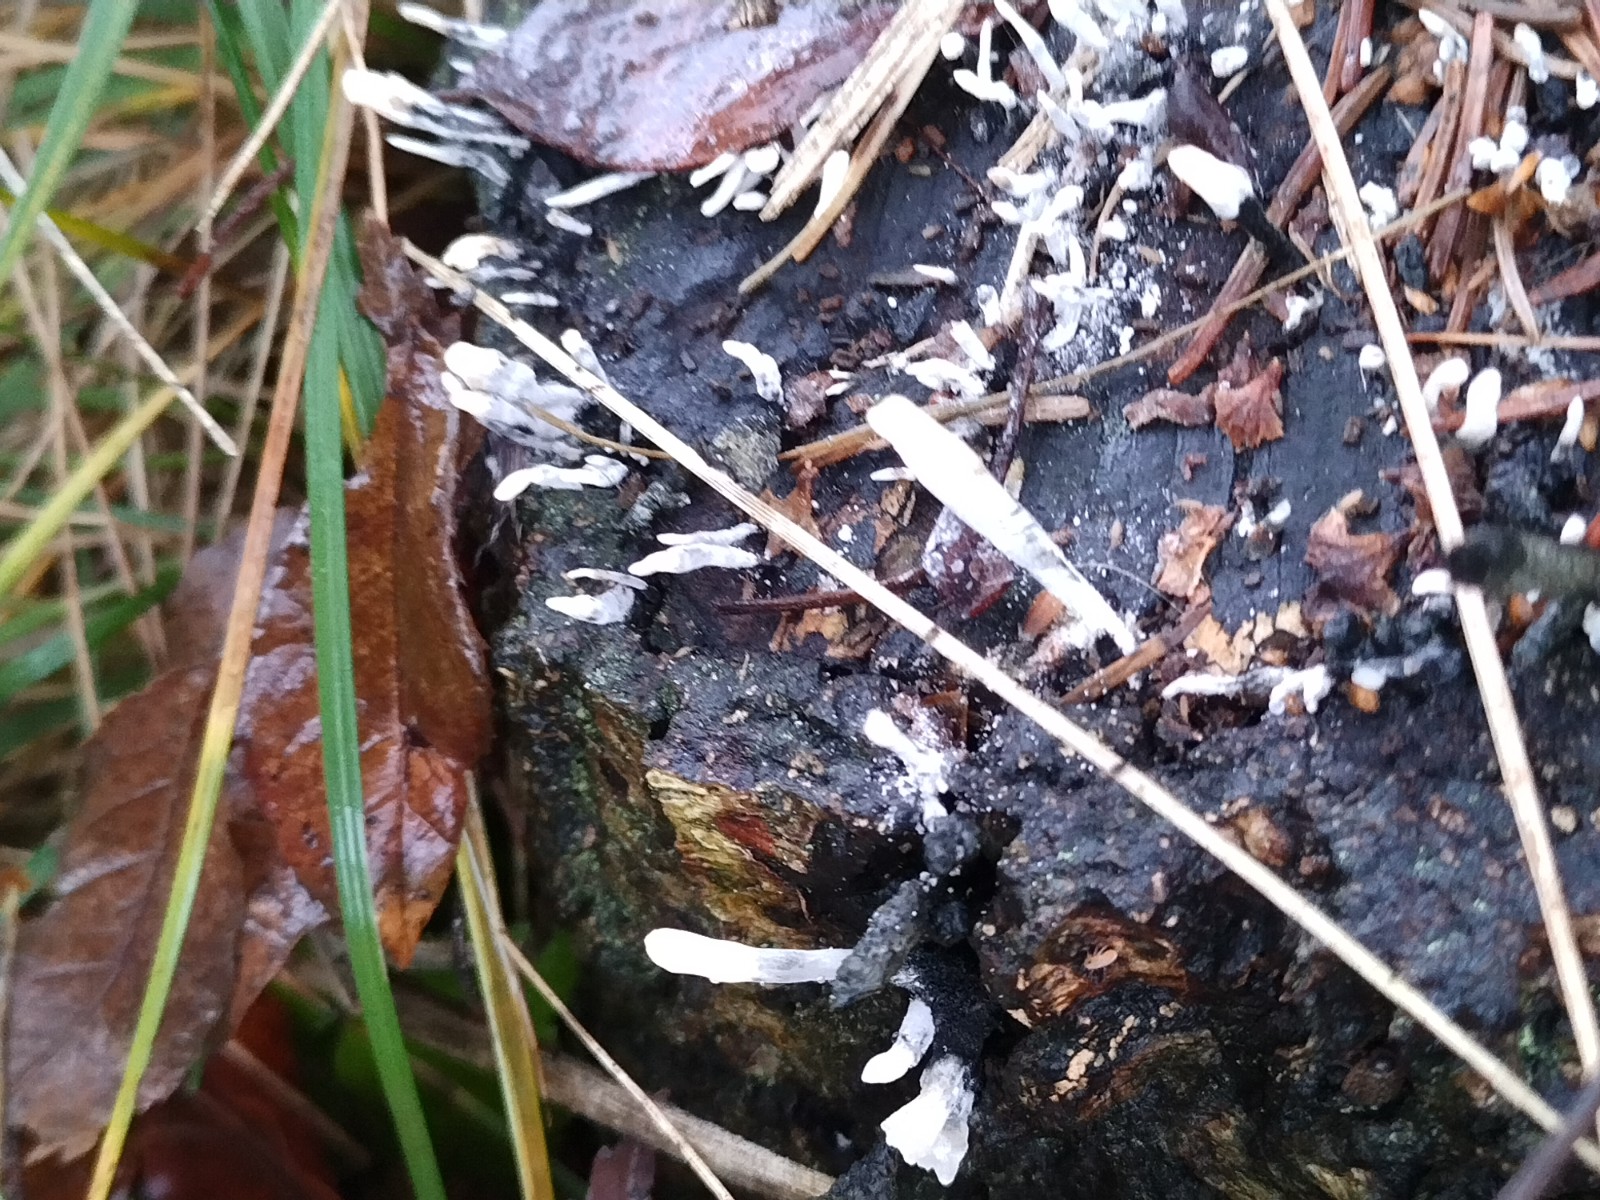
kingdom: Fungi
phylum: Ascomycota
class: Sordariomycetes
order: Xylariales
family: Xylariaceae
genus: Xylaria
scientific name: Xylaria hypoxylon
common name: grenet stødsvamp
